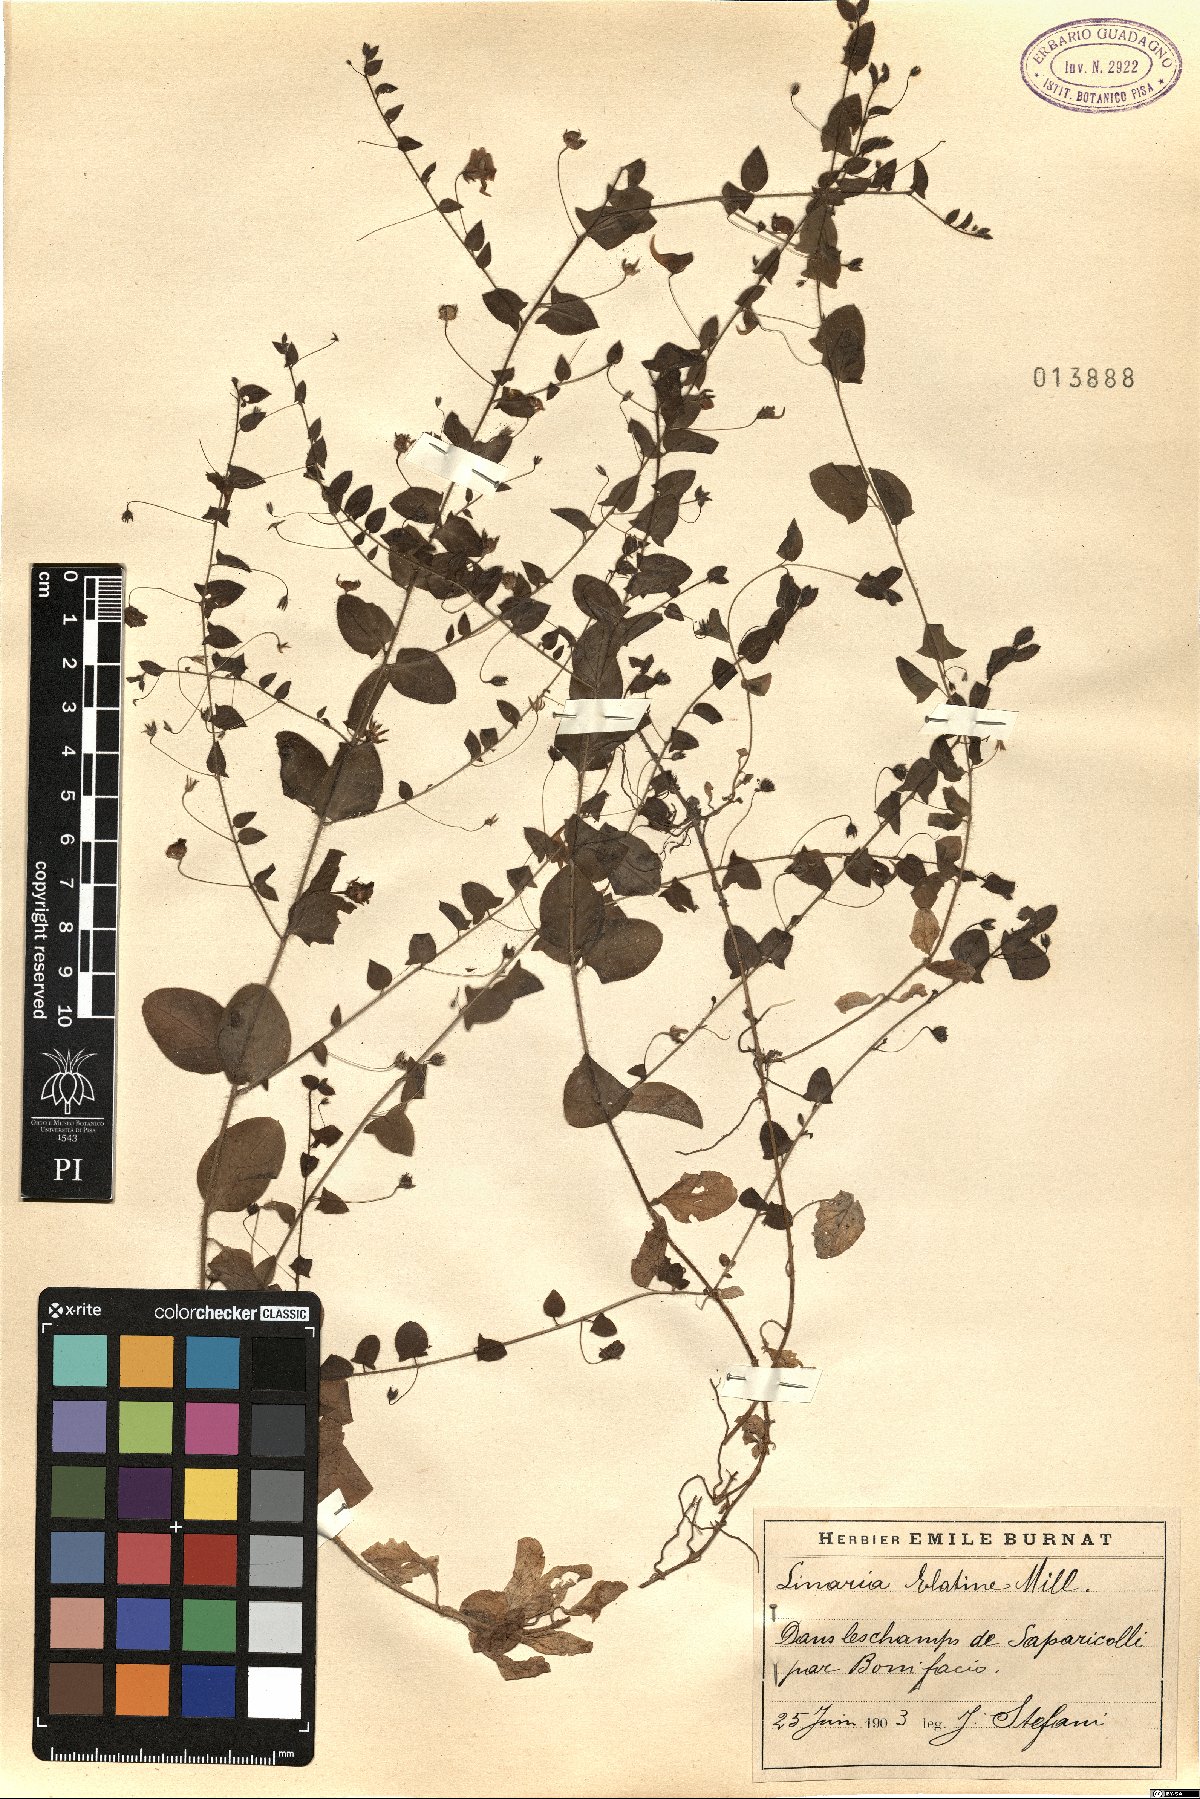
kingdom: Plantae
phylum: Tracheophyta
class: Magnoliopsida
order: Lamiales
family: Plantaginaceae
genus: Kickxia
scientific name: Kickxia elatine
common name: Sharp-leaved fluellen
